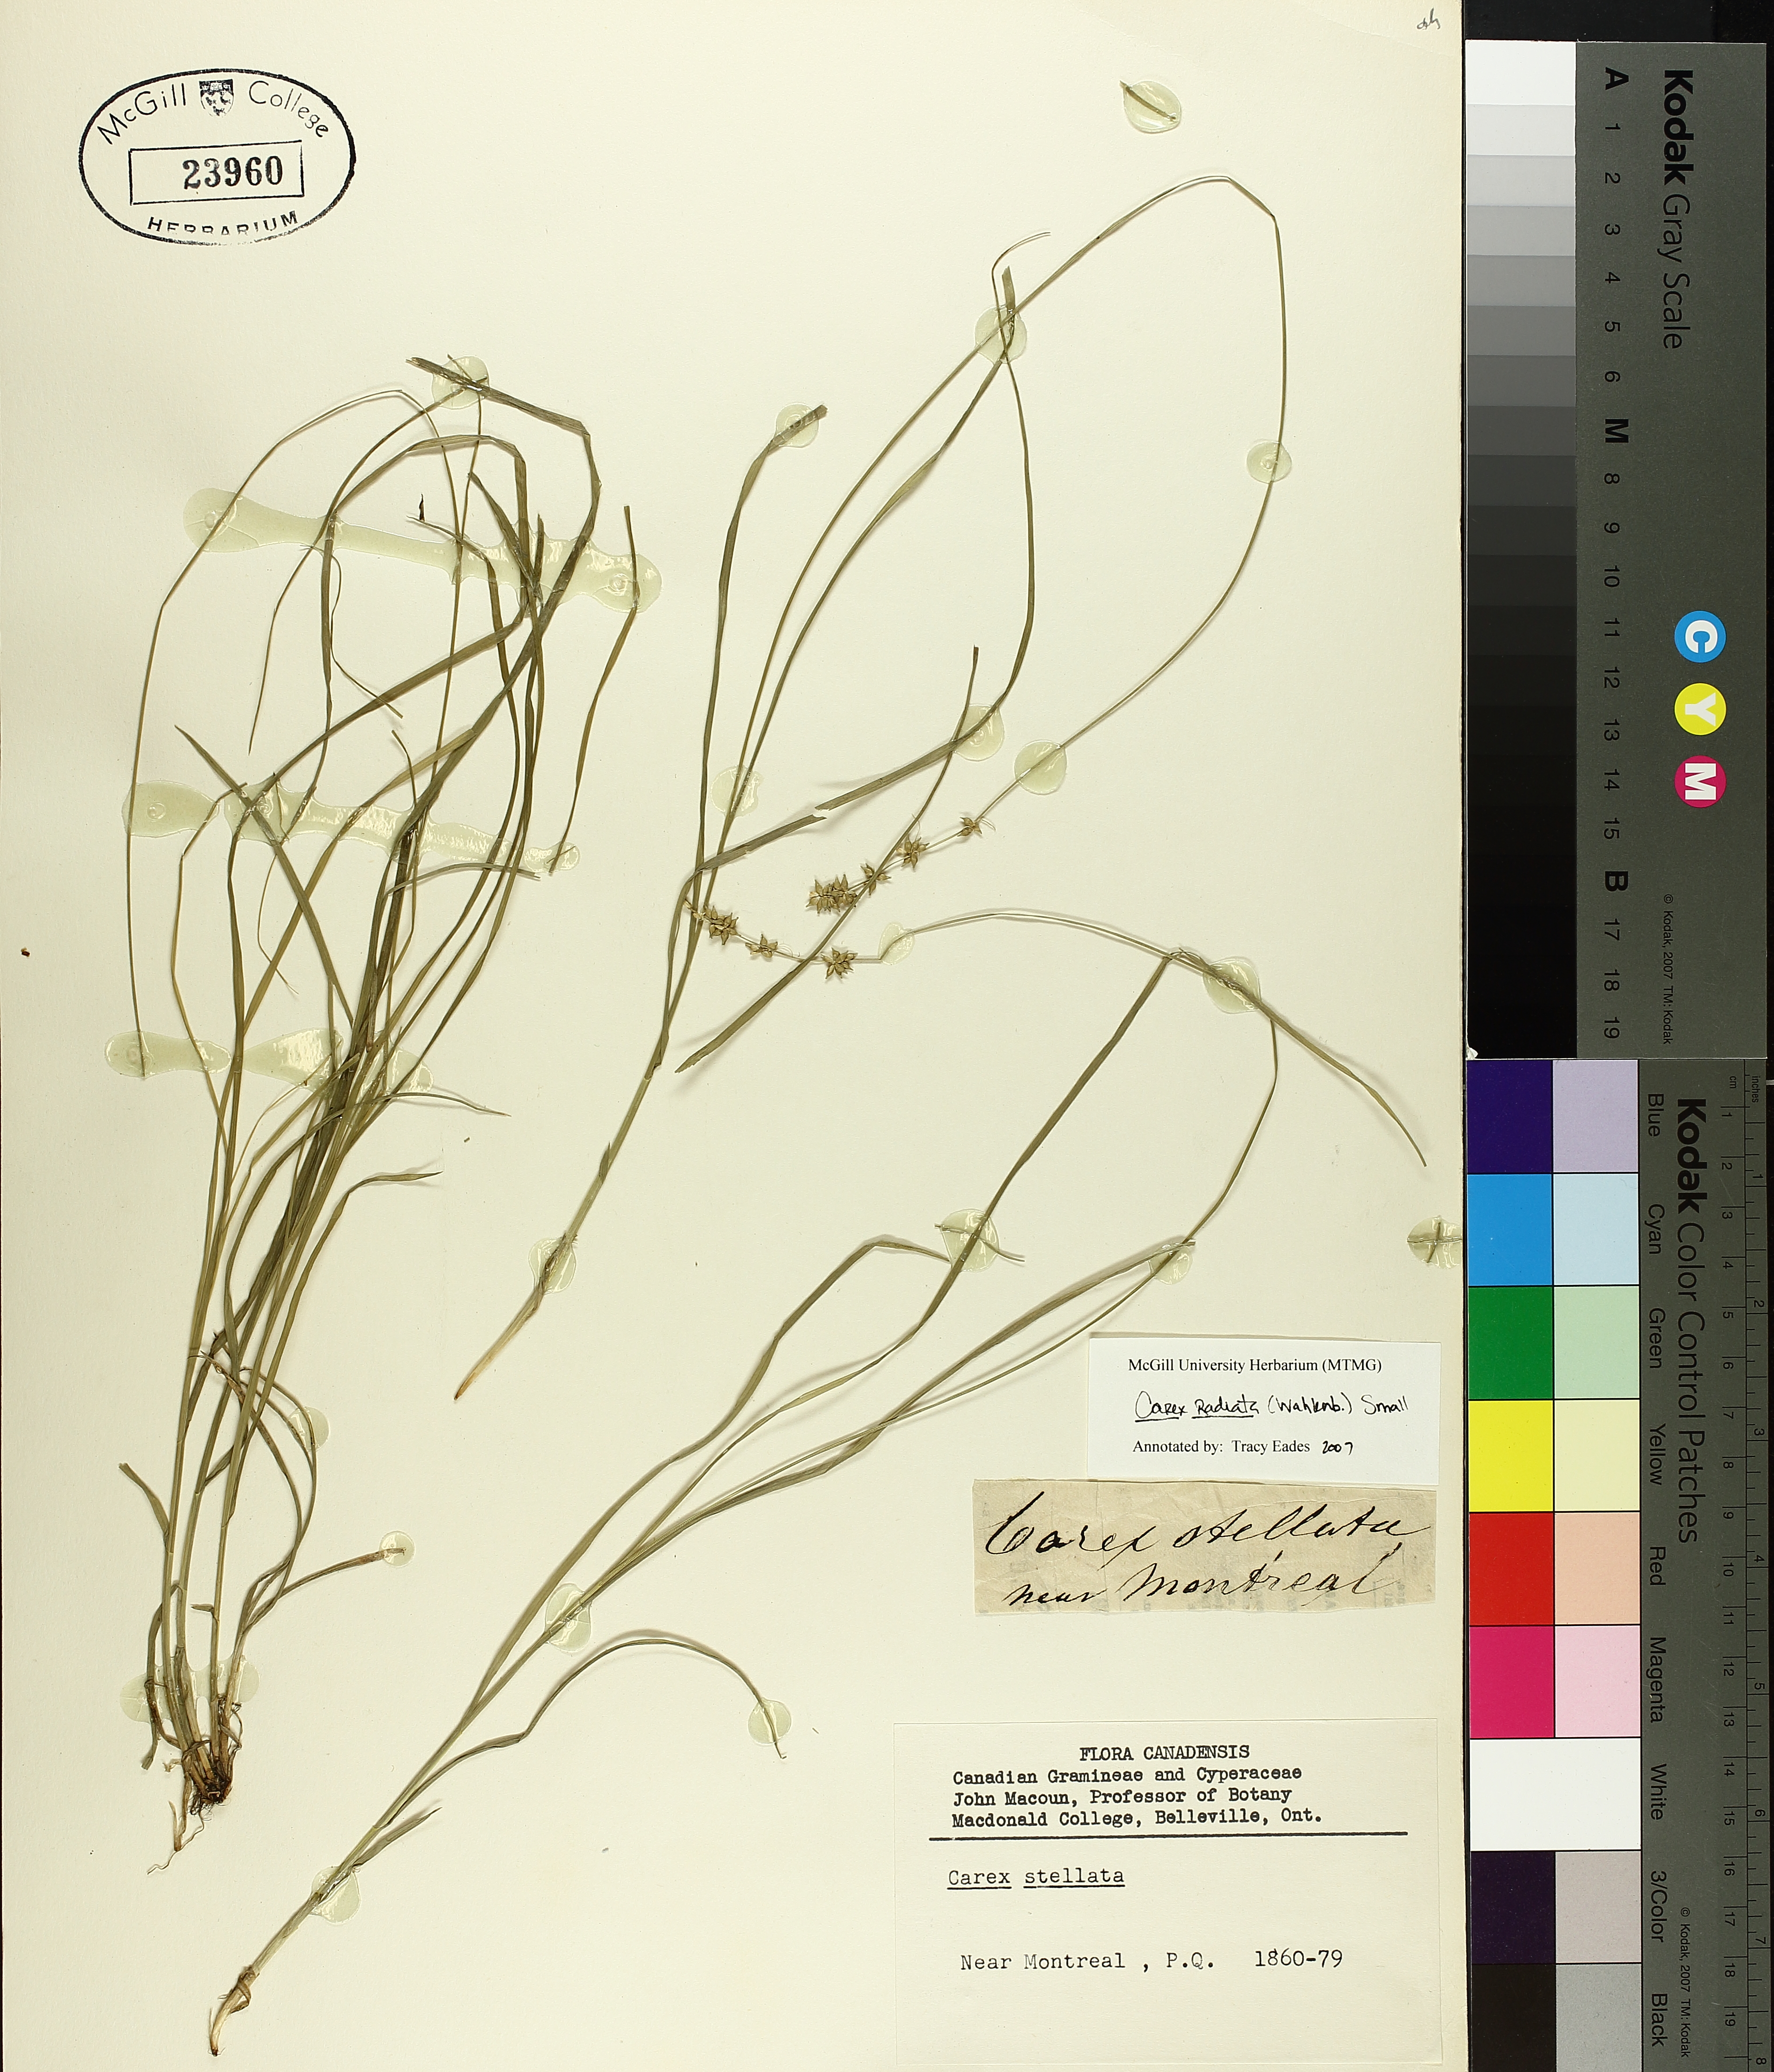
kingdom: Plantae
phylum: Tracheophyta
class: Liliopsida
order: Poales
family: Cyperaceae
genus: Carex
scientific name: Carex radiata
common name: Eastern star sedge
